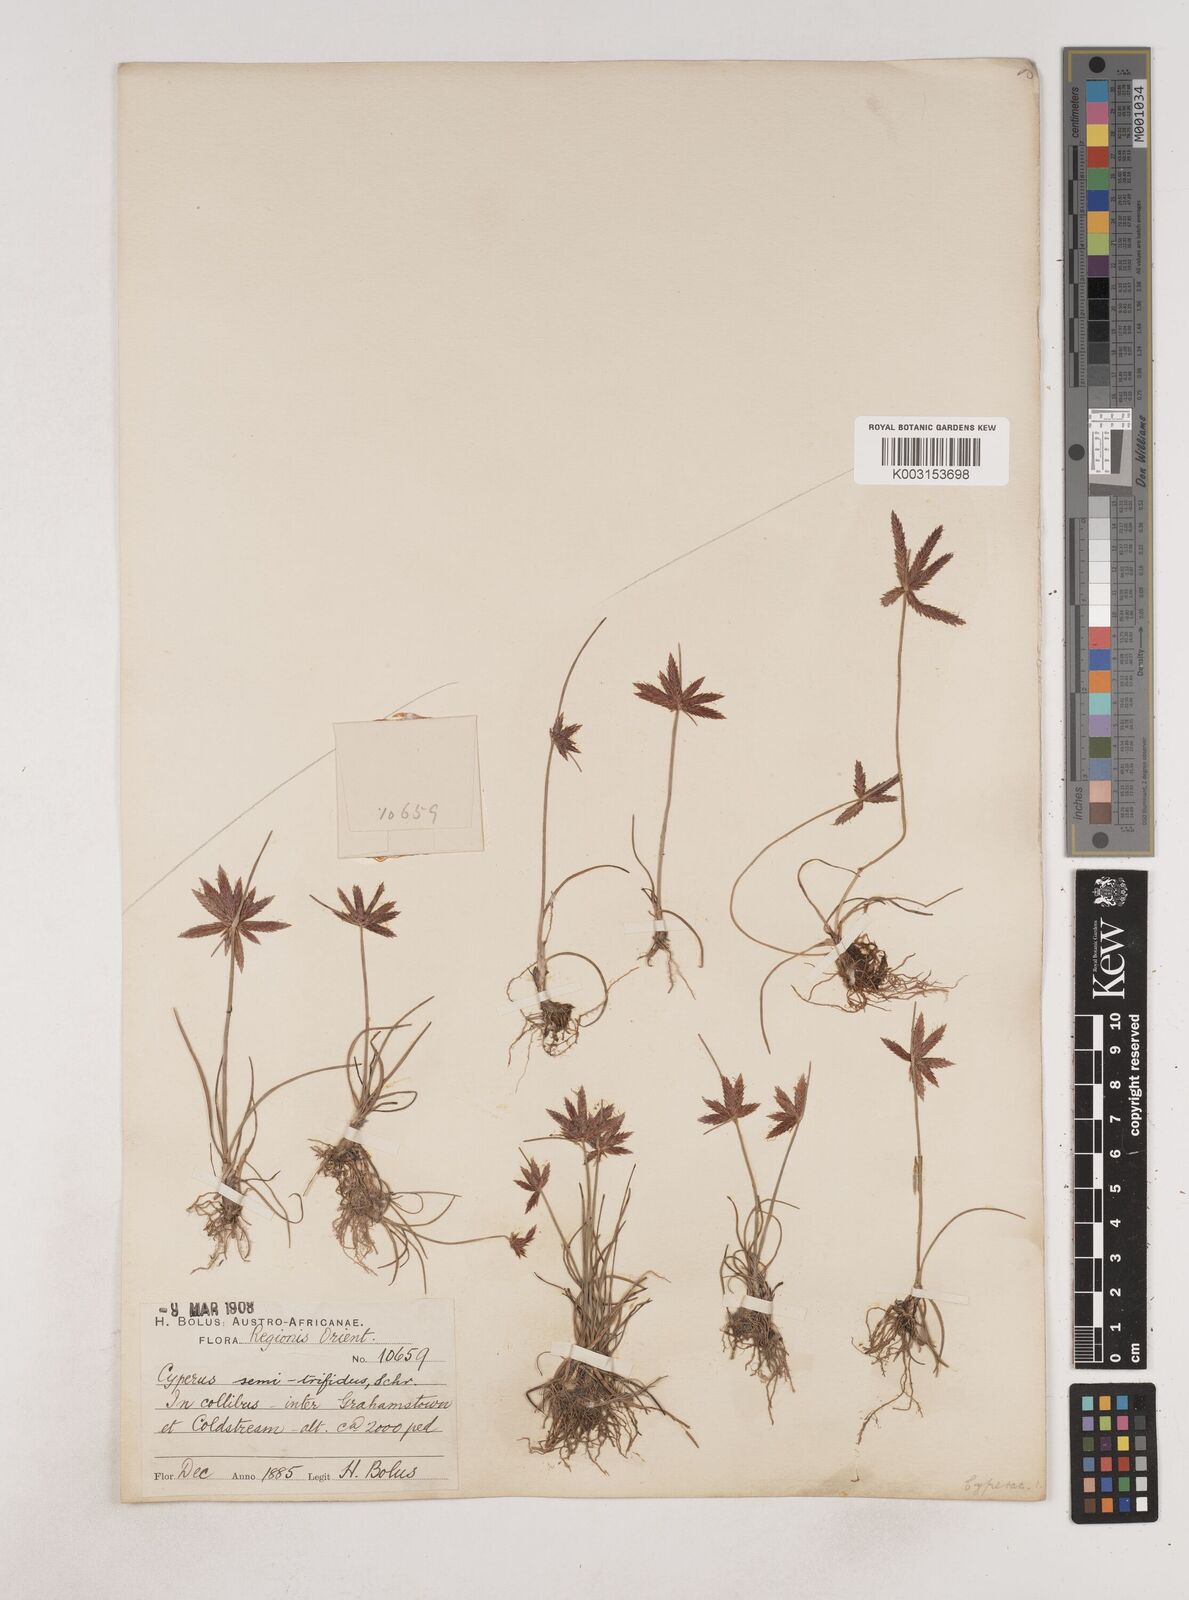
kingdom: Plantae
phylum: Tracheophyta
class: Liliopsida
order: Poales
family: Cyperaceae
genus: Cyperus
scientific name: Cyperus semitrifidus
